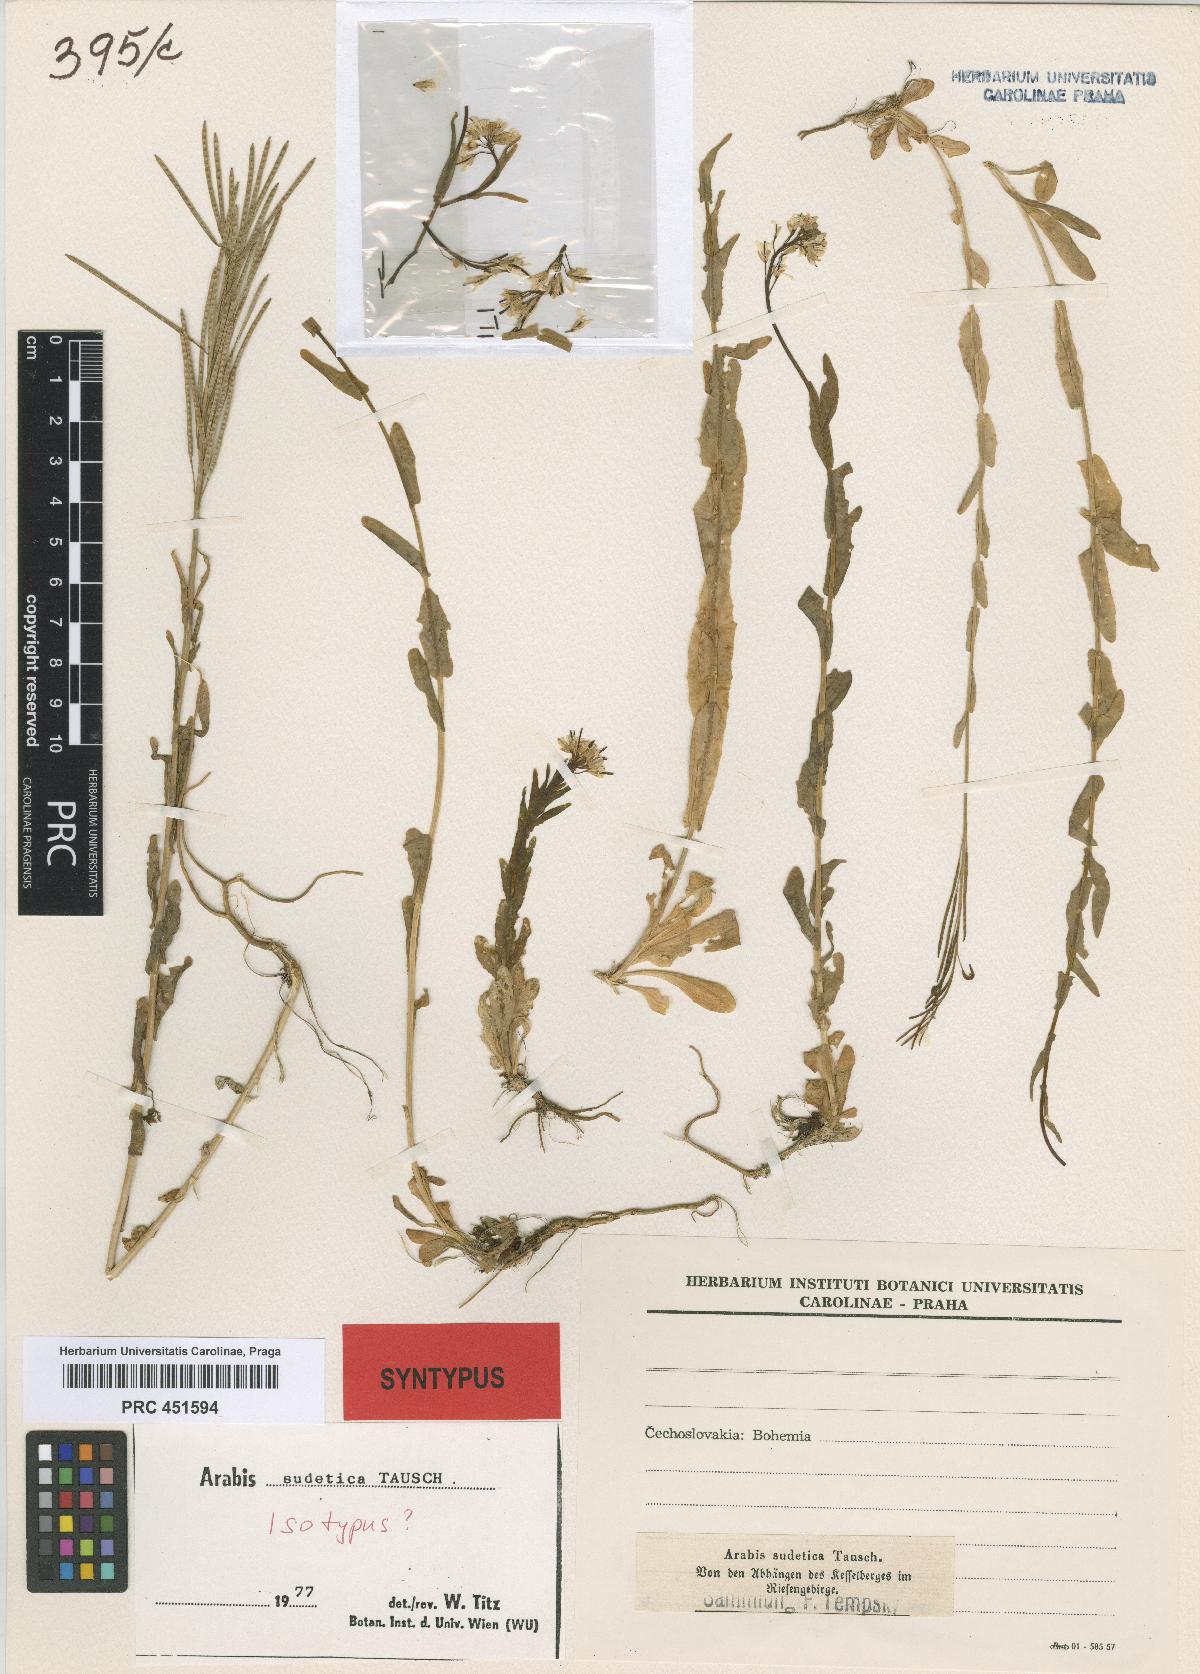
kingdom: Plantae
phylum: Tracheophyta
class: Magnoliopsida
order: Brassicales
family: Brassicaceae
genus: Arabis
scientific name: Arabis sudetica
